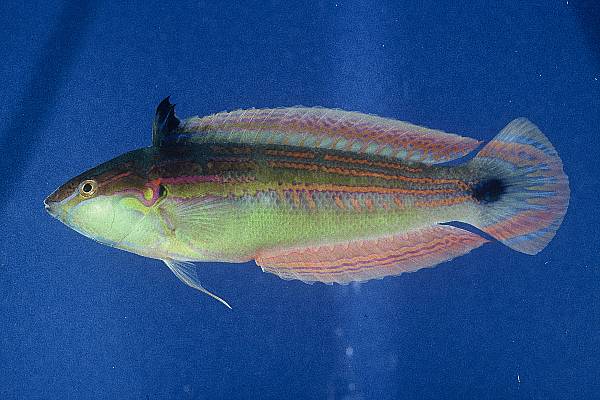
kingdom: Animalia
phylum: Chordata
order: Perciformes
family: Labridae
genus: Coris
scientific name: Coris caudimacula
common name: Spottail coris
